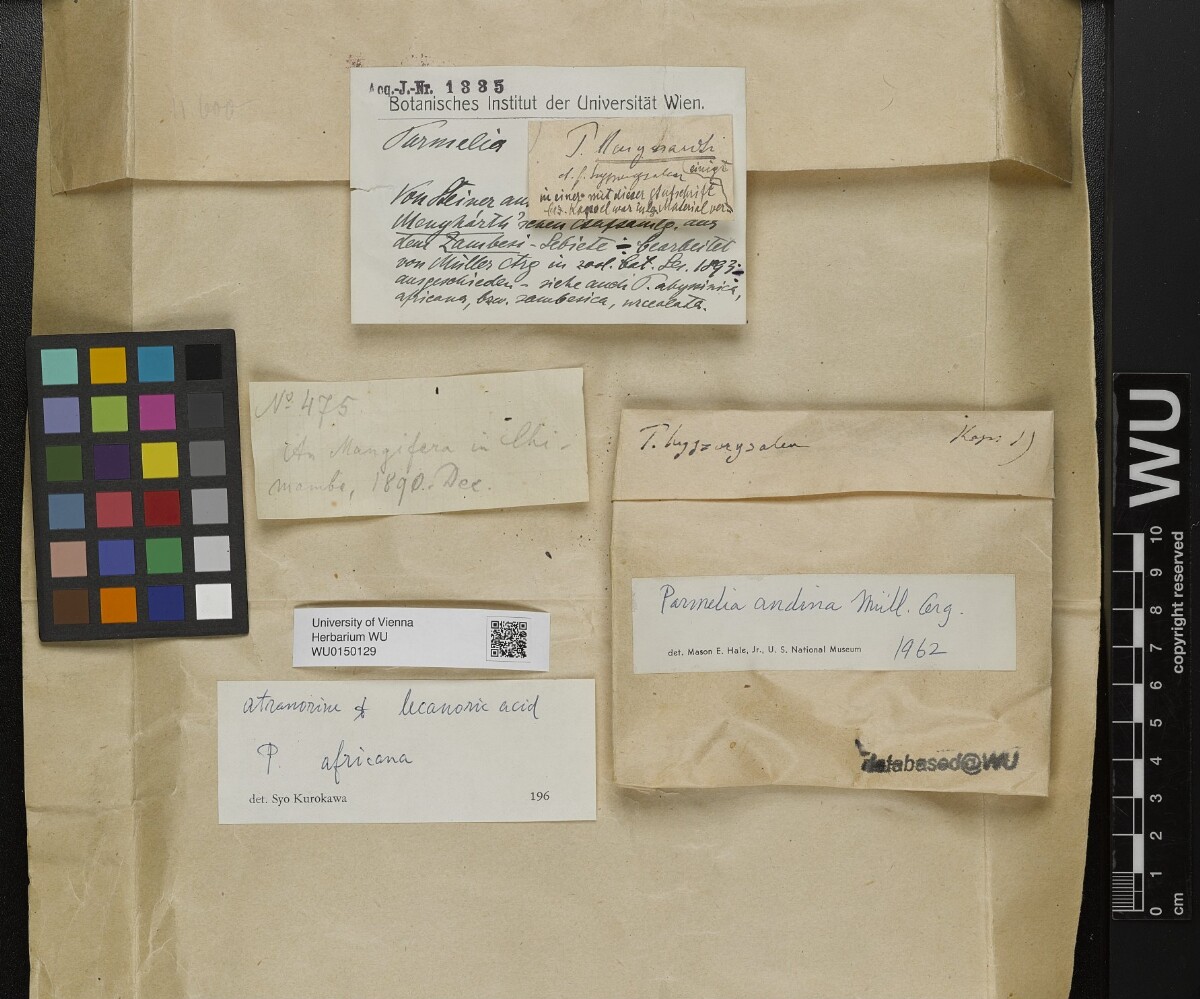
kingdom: Fungi
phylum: Ascomycota
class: Lecanoromycetes
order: Lecanorales
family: Parmeliaceae
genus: Parmotrema
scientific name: Parmotrema andinum
